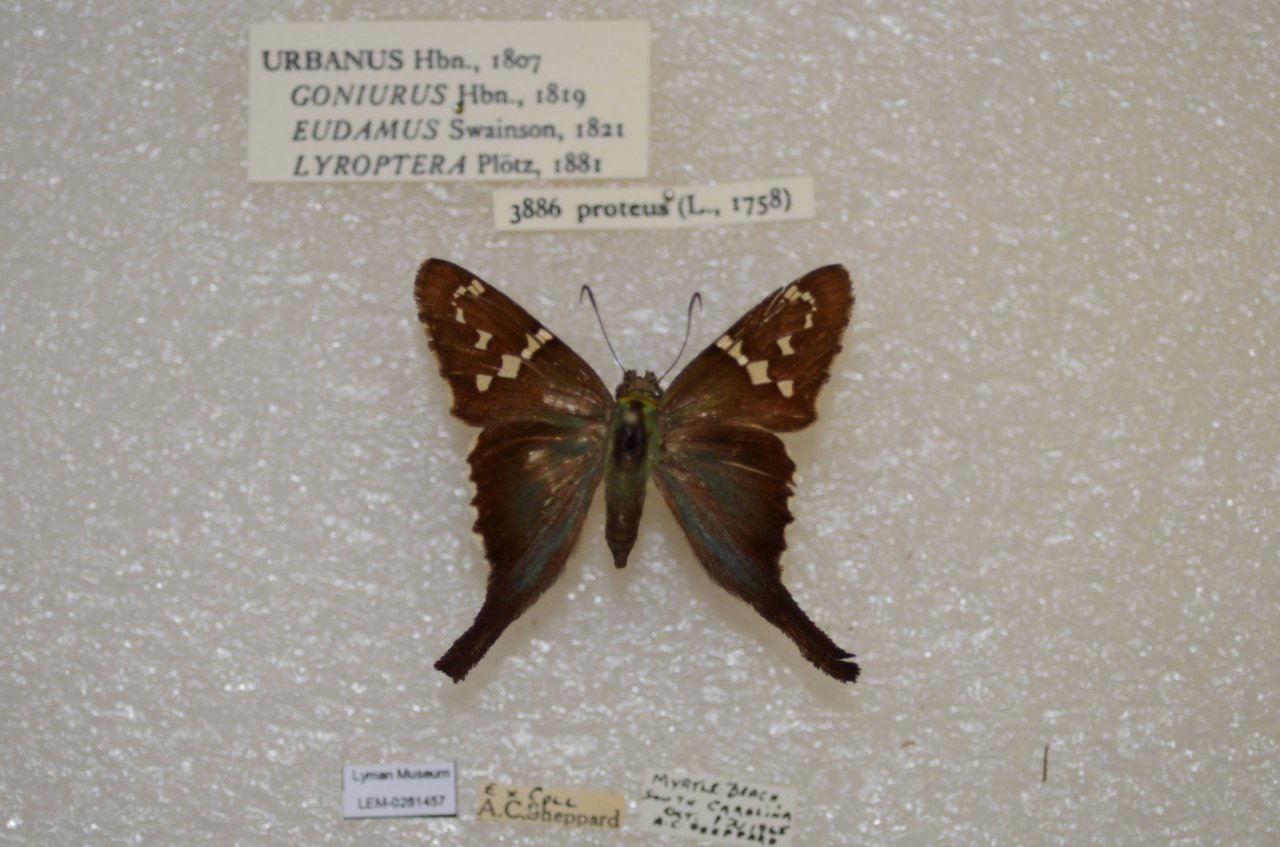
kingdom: Animalia
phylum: Arthropoda
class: Insecta
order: Lepidoptera
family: Hesperiidae
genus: Urbanus
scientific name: Urbanus proteus
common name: Long-tailed Skipper
